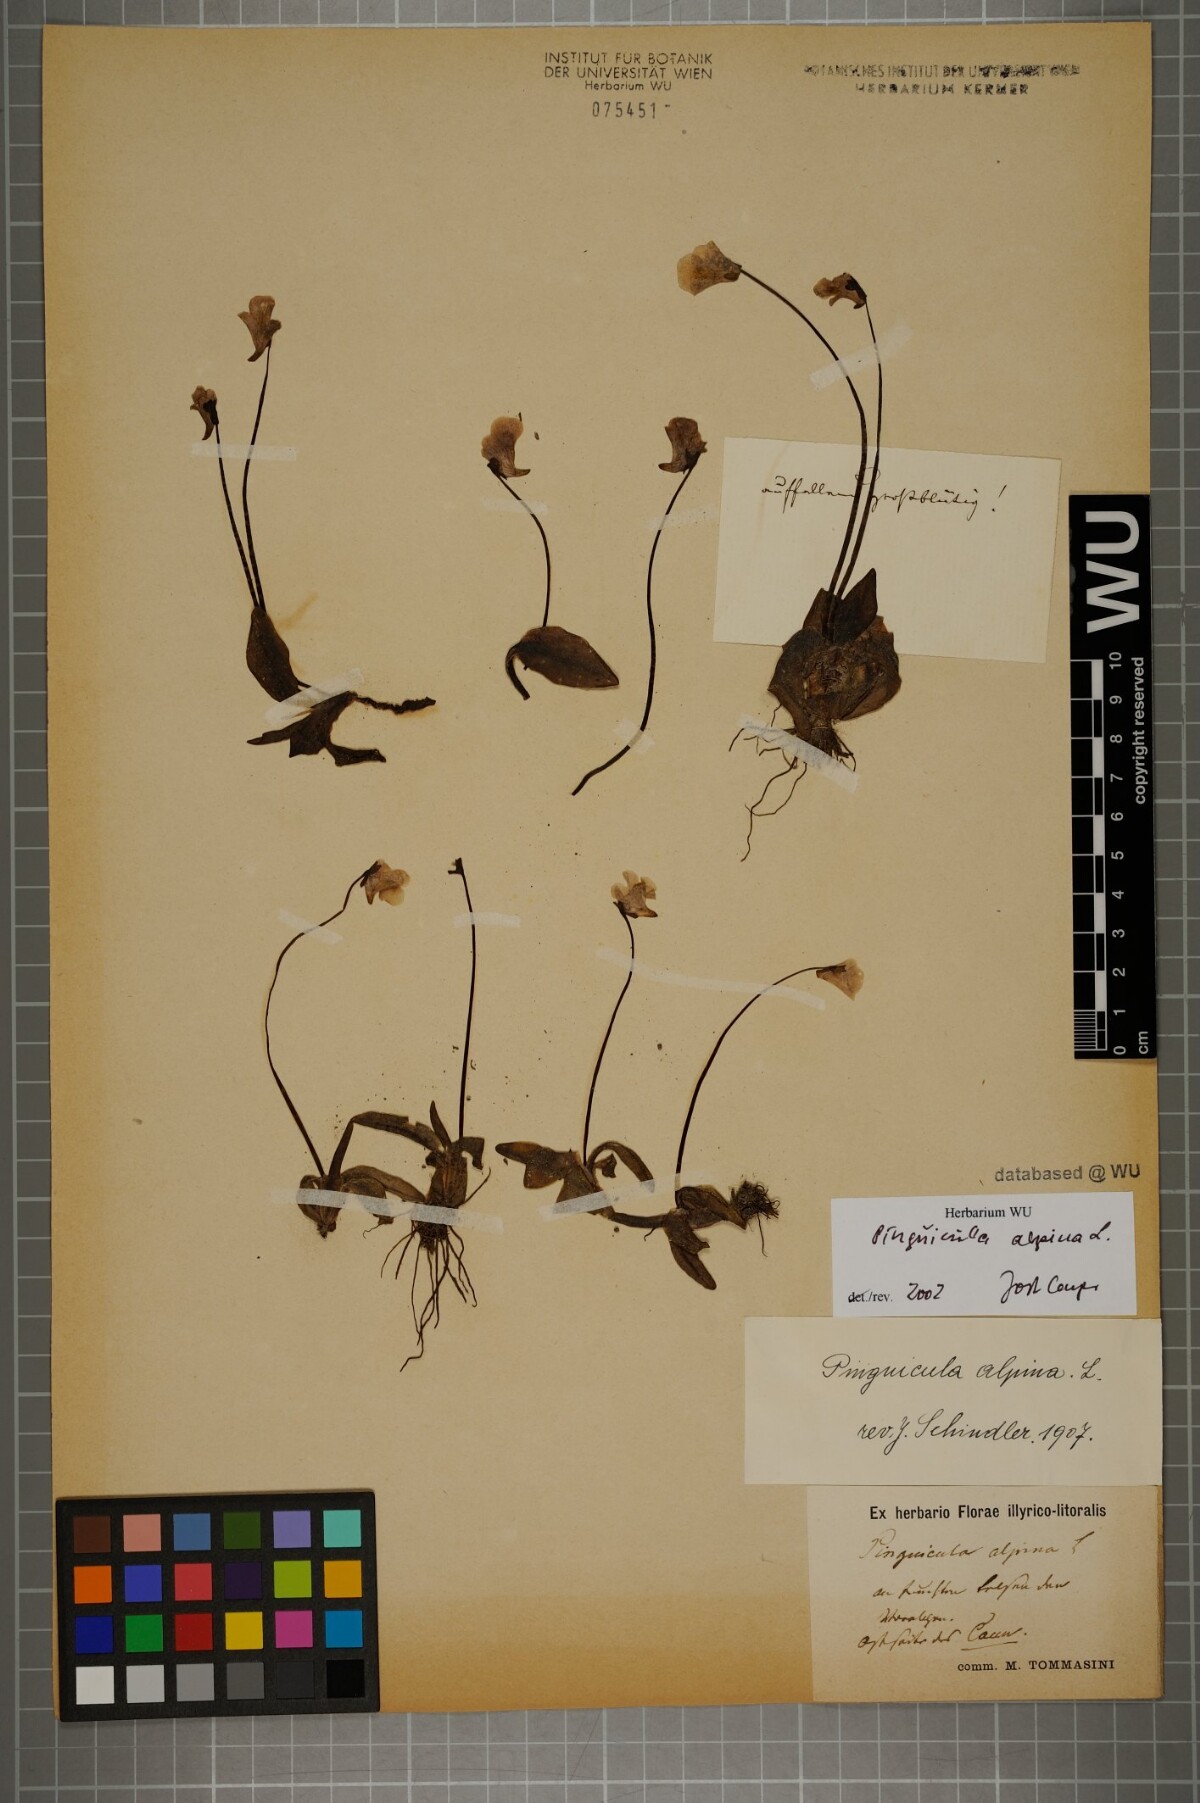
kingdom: Plantae
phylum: Tracheophyta
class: Magnoliopsida
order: Lamiales
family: Lentibulariaceae
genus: Pinguicula
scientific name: Pinguicula alpina
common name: Alpine butterwort
